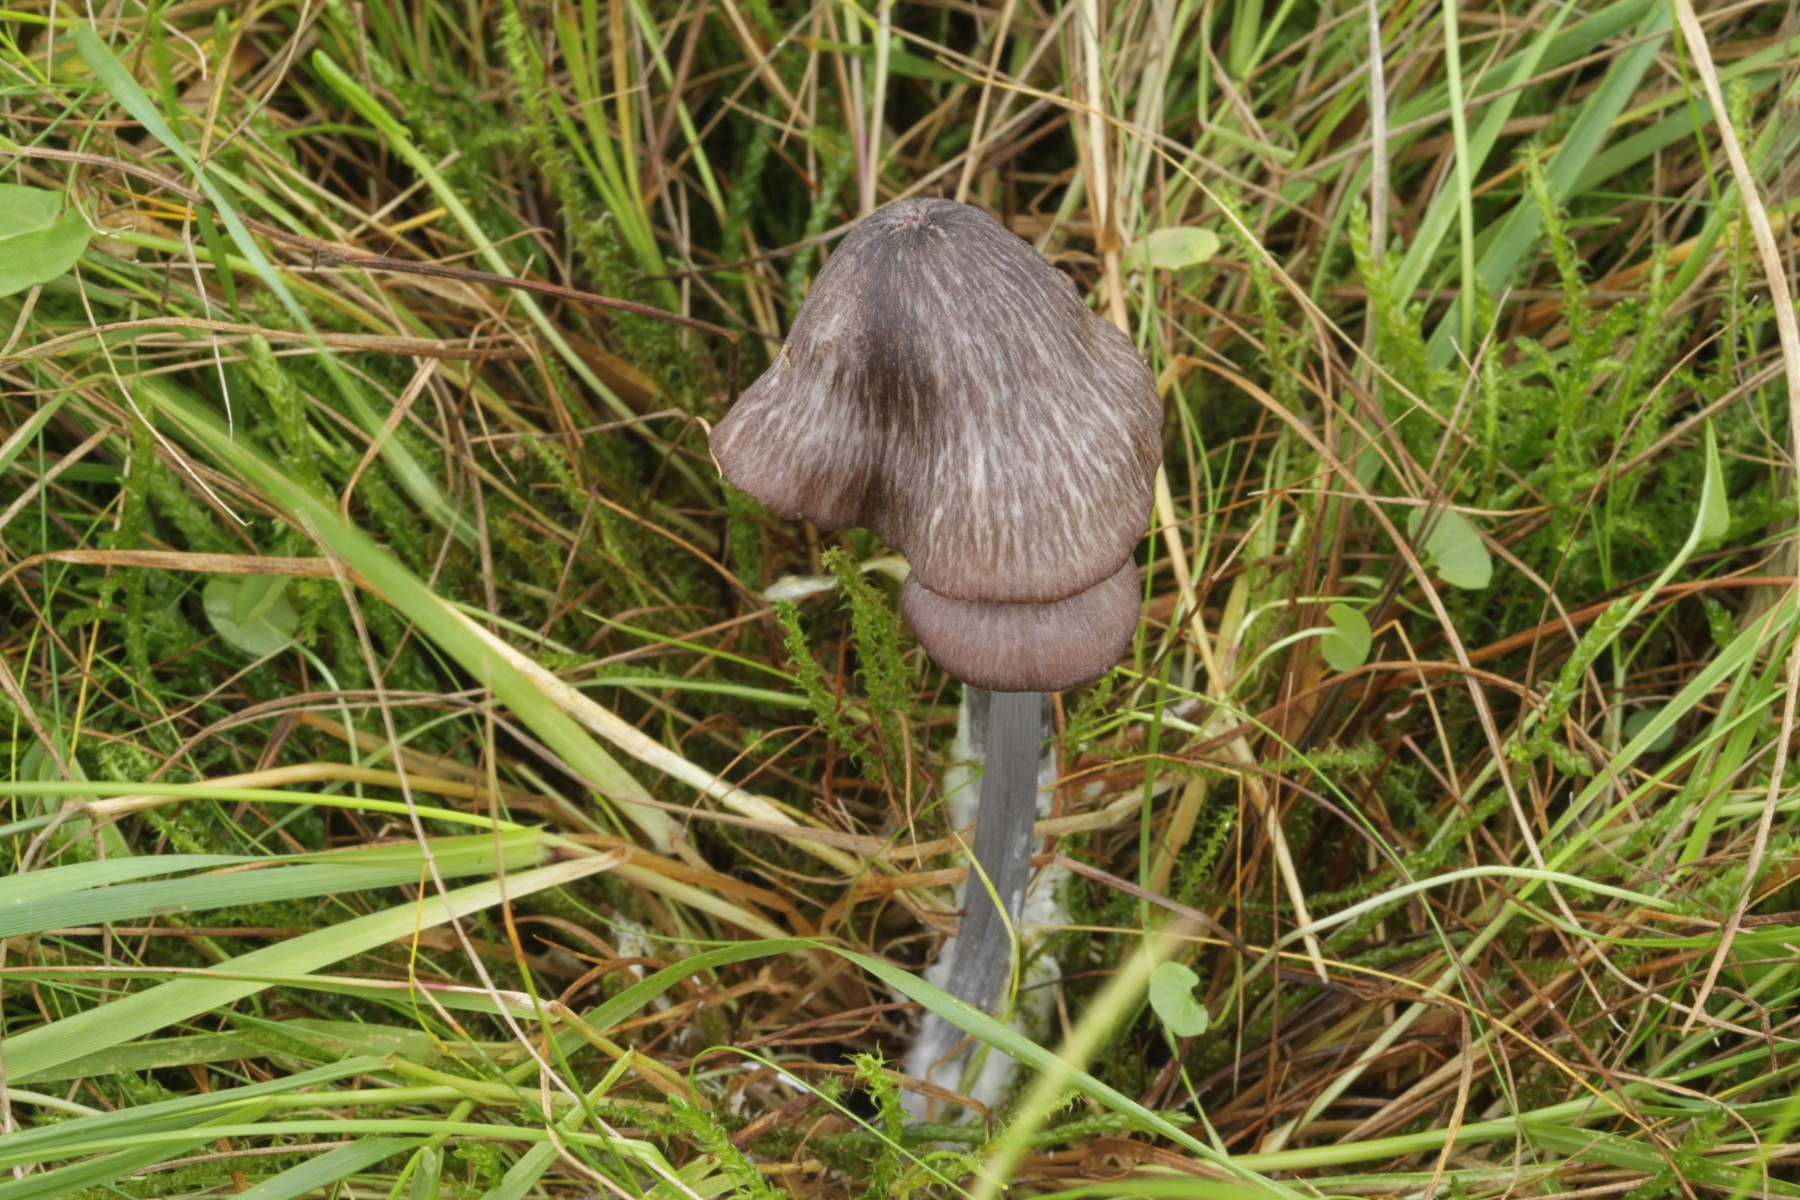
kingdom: Fungi
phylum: Basidiomycota
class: Agaricomycetes
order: Agaricales
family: Entolomataceae
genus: Entoloma
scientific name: Entoloma viiduense
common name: purpurbrun rødblad
